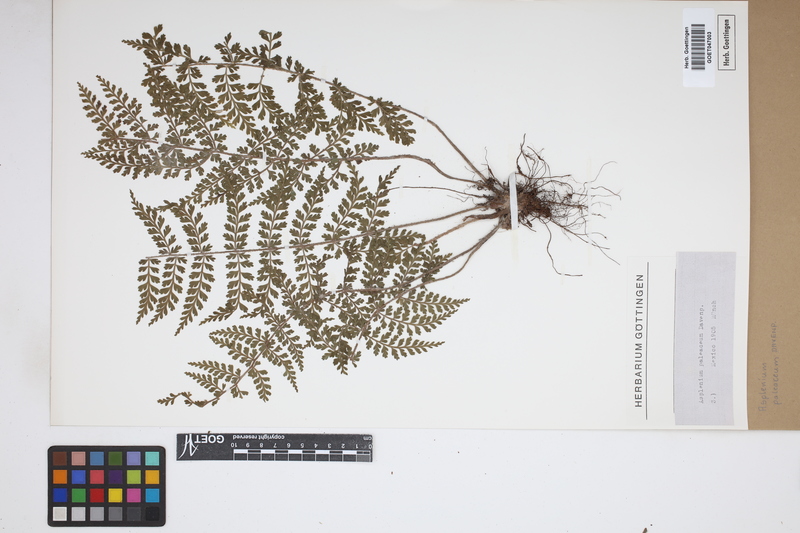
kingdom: Plantae
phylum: Tracheophyta
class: Polypodiopsida
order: Polypodiales
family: Aspleniaceae
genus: Asplenium
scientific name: Asplenium paleaceum
